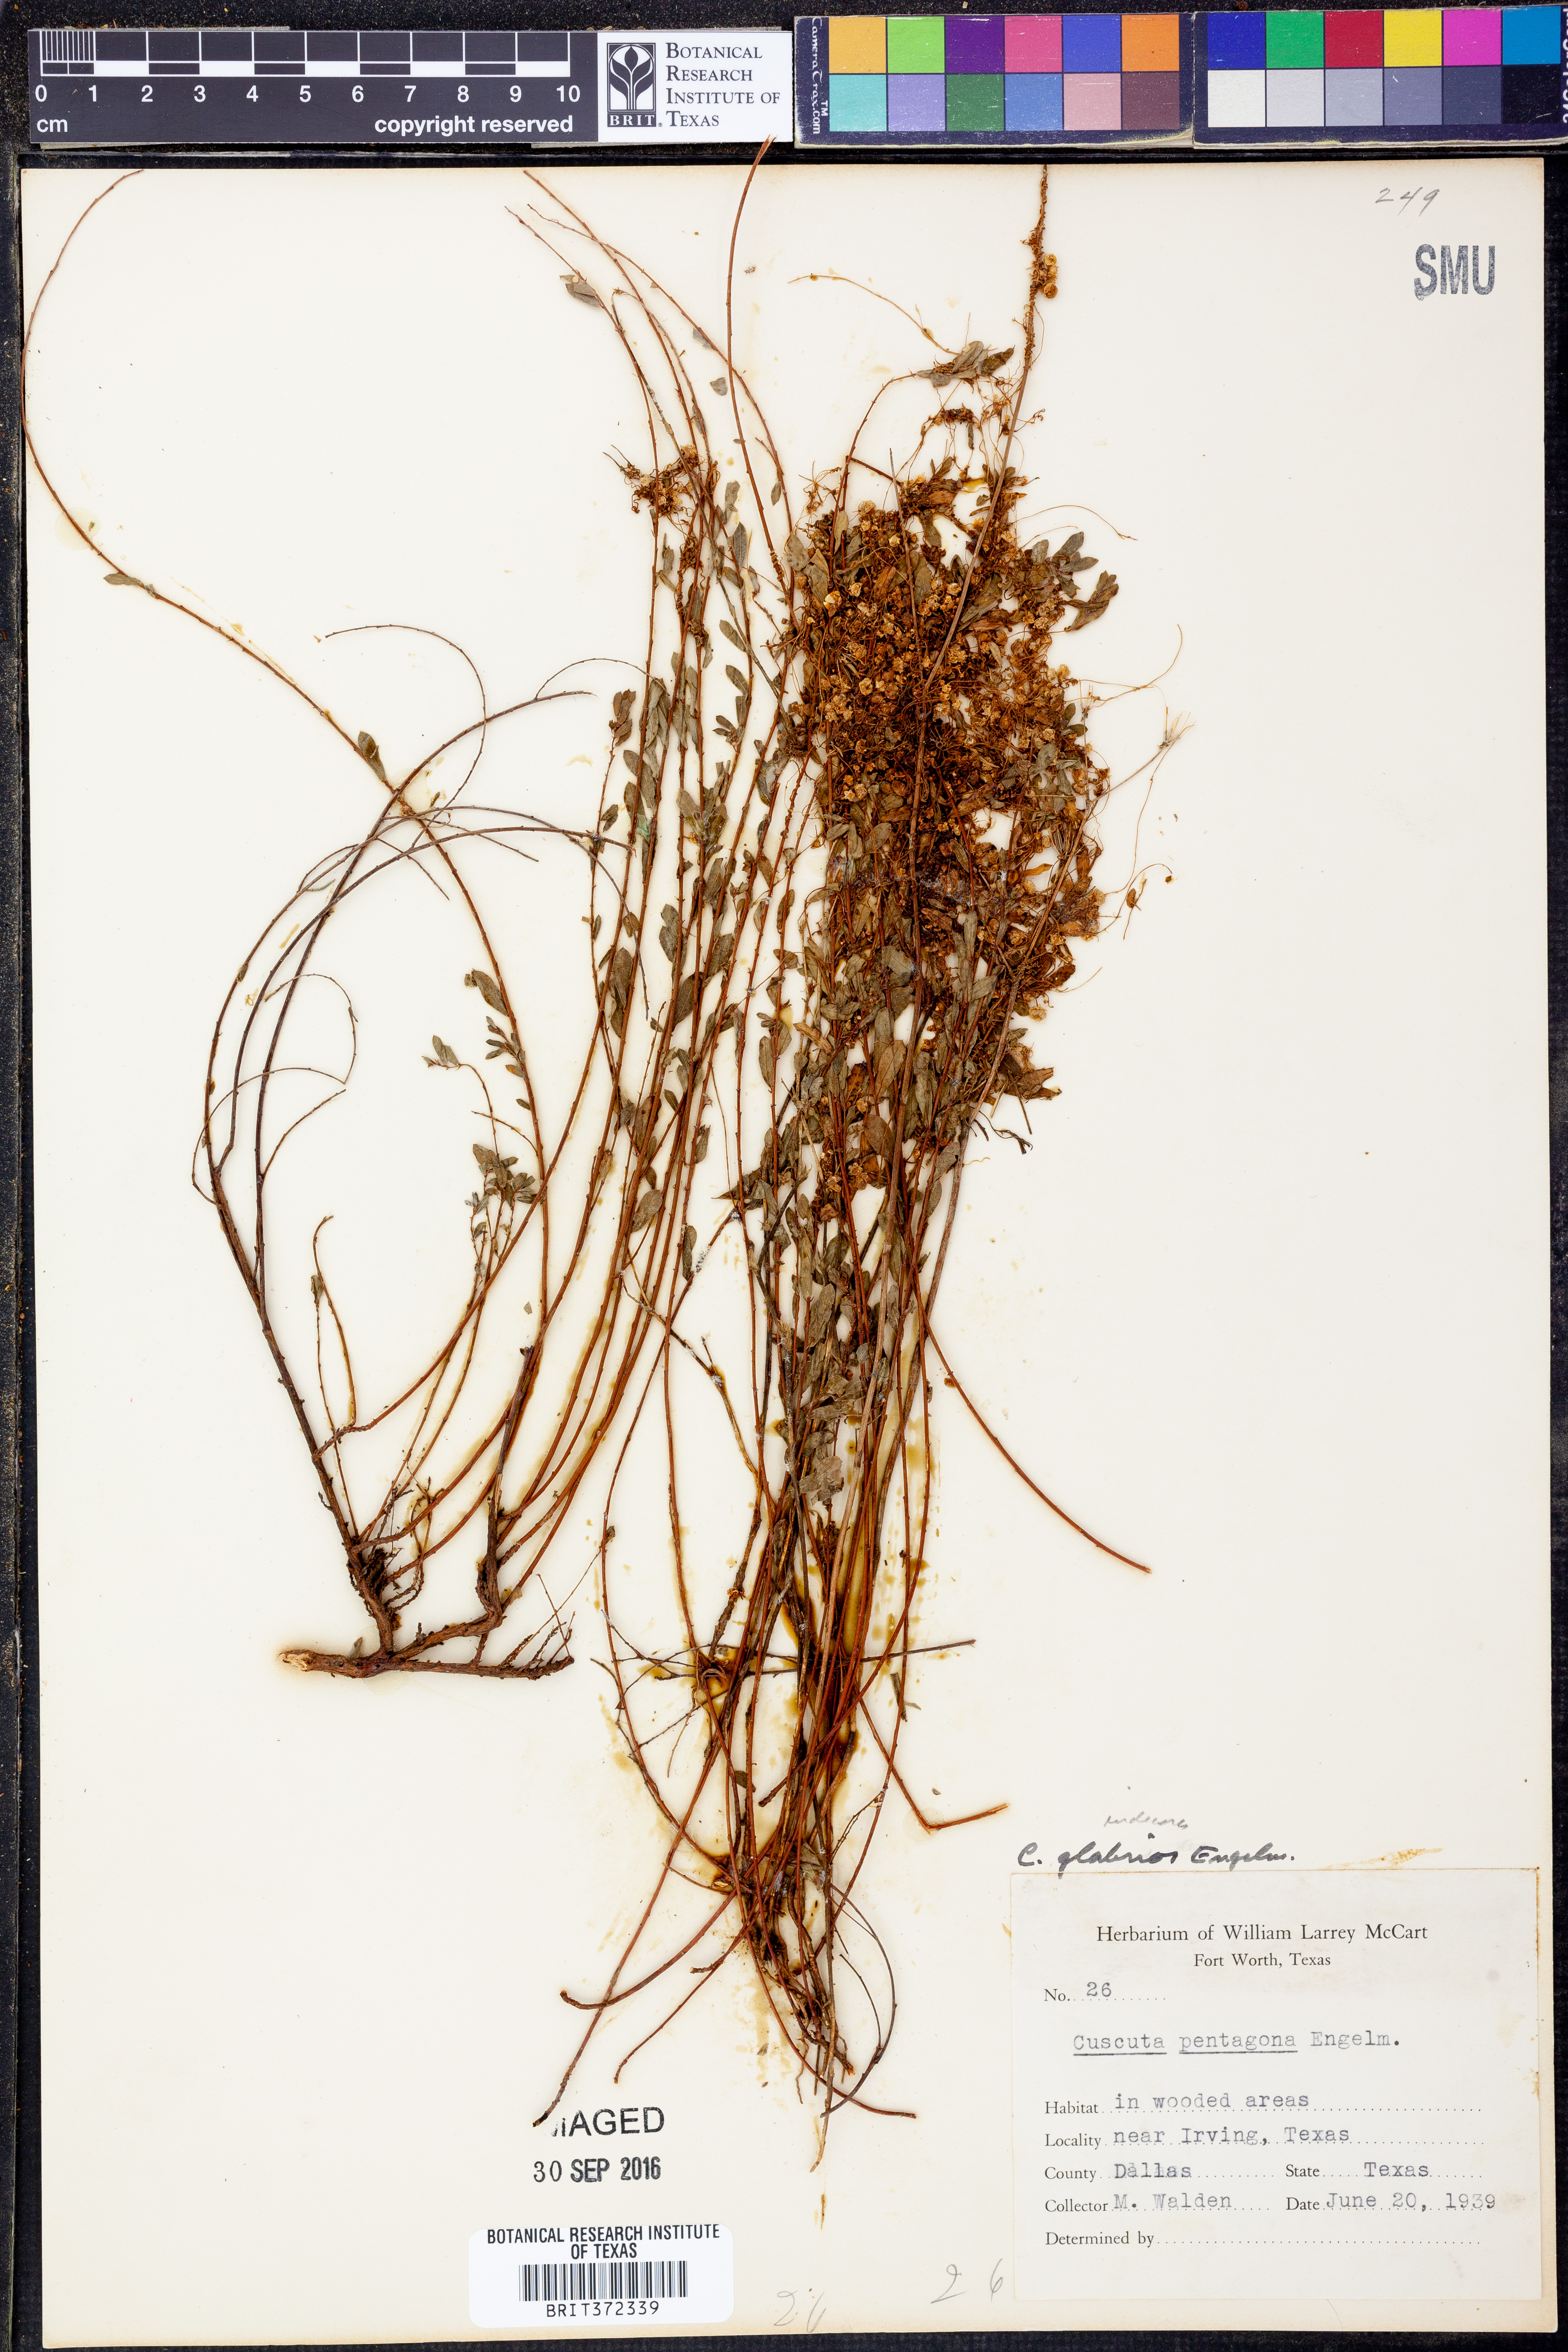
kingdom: Plantae
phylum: Tracheophyta
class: Magnoliopsida
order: Solanales
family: Convolvulaceae
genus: Cuscuta
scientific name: Cuscuta glabrior
